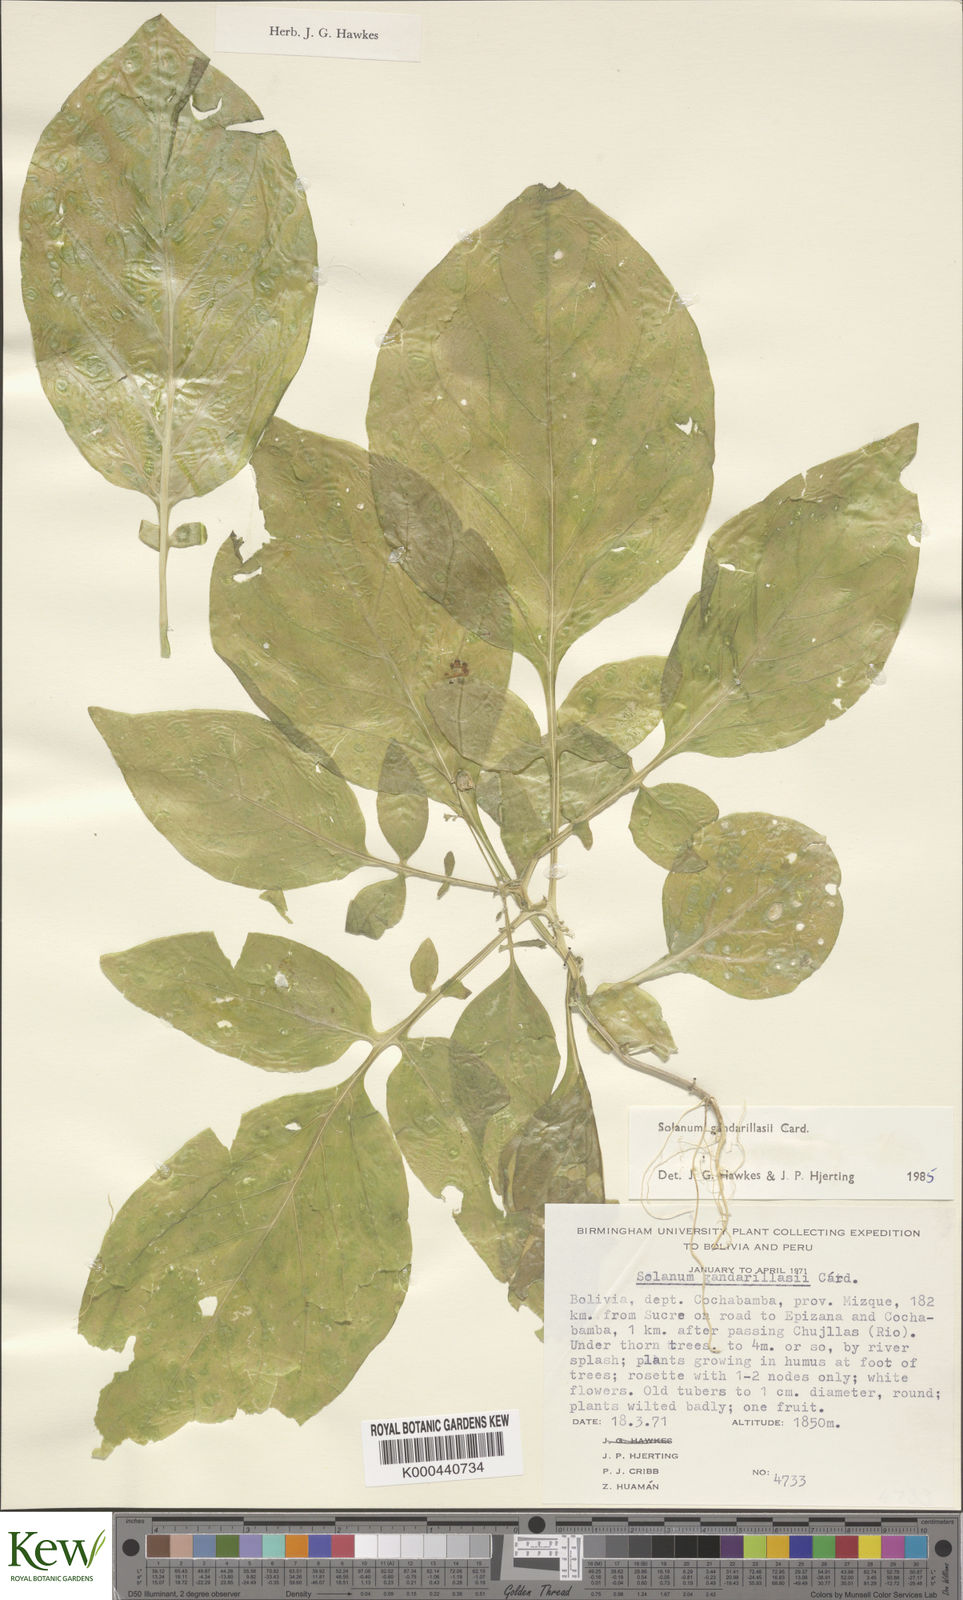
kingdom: Plantae
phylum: Tracheophyta
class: Magnoliopsida
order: Solanales
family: Solanaceae
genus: Solanum
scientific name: Solanum
